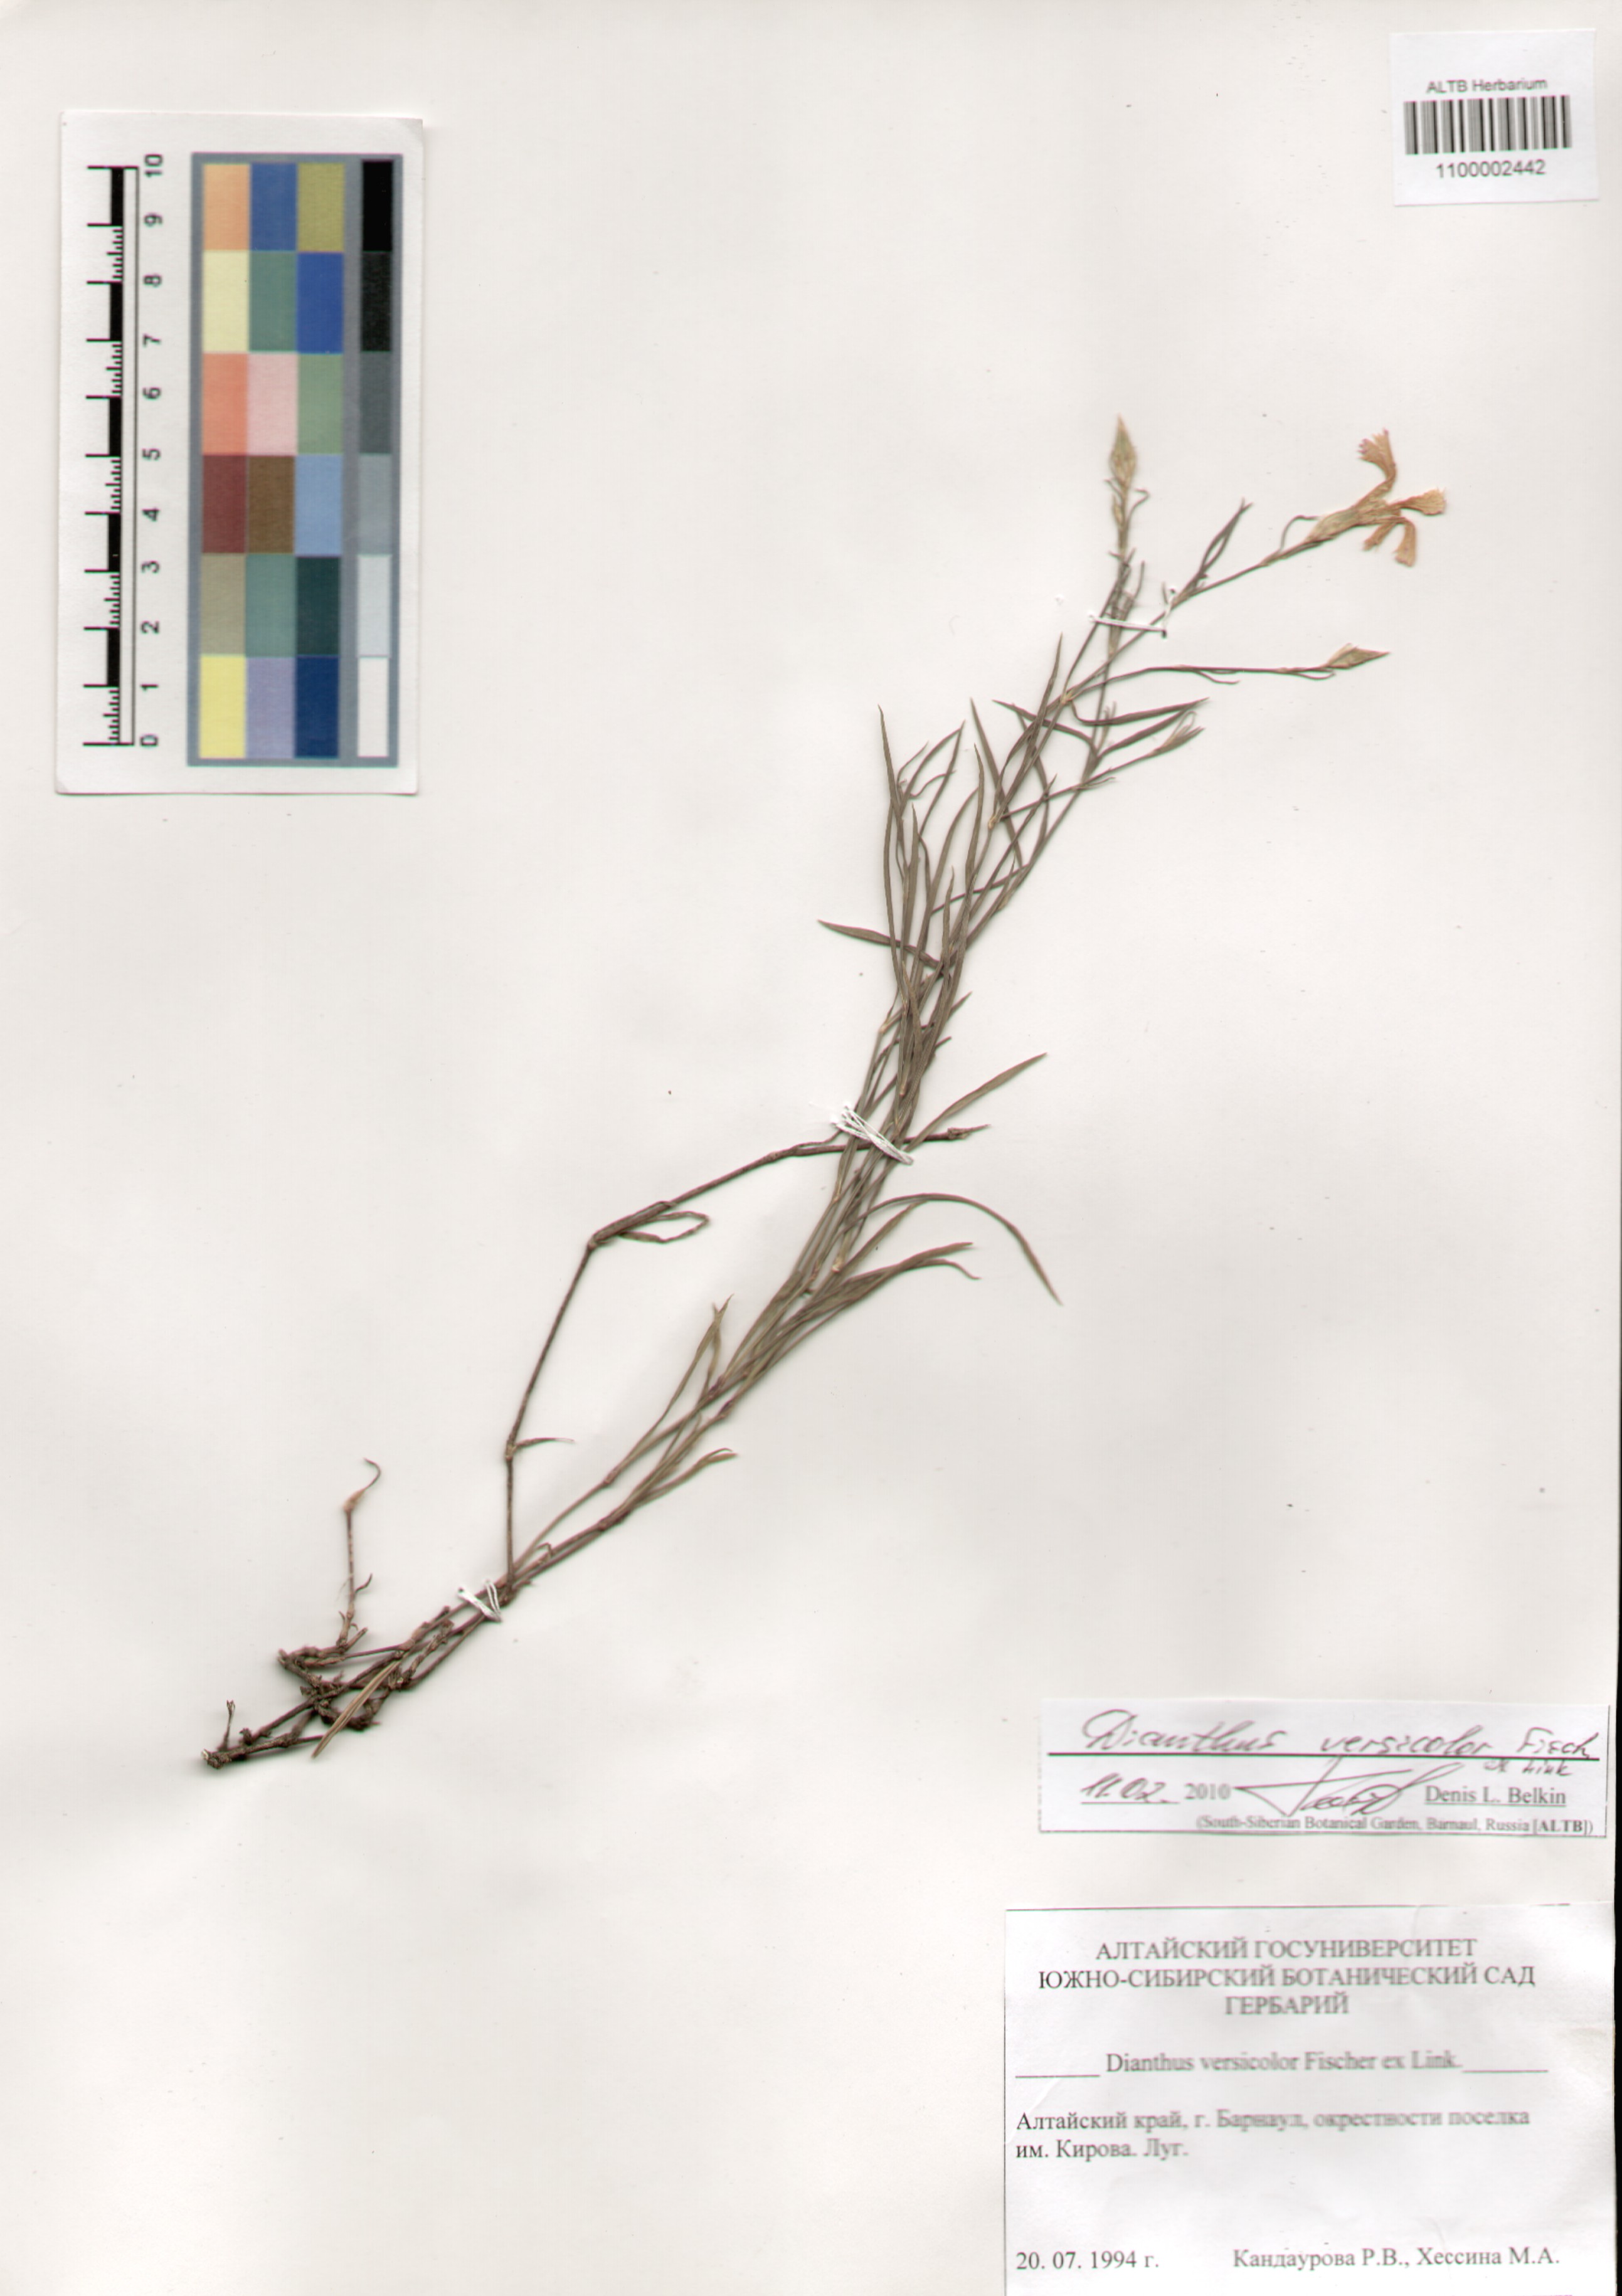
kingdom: Plantae
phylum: Tracheophyta
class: Magnoliopsida
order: Caryophyllales
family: Caryophyllaceae
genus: Dianthus
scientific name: Dianthus chinensis
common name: Rainbow pink
